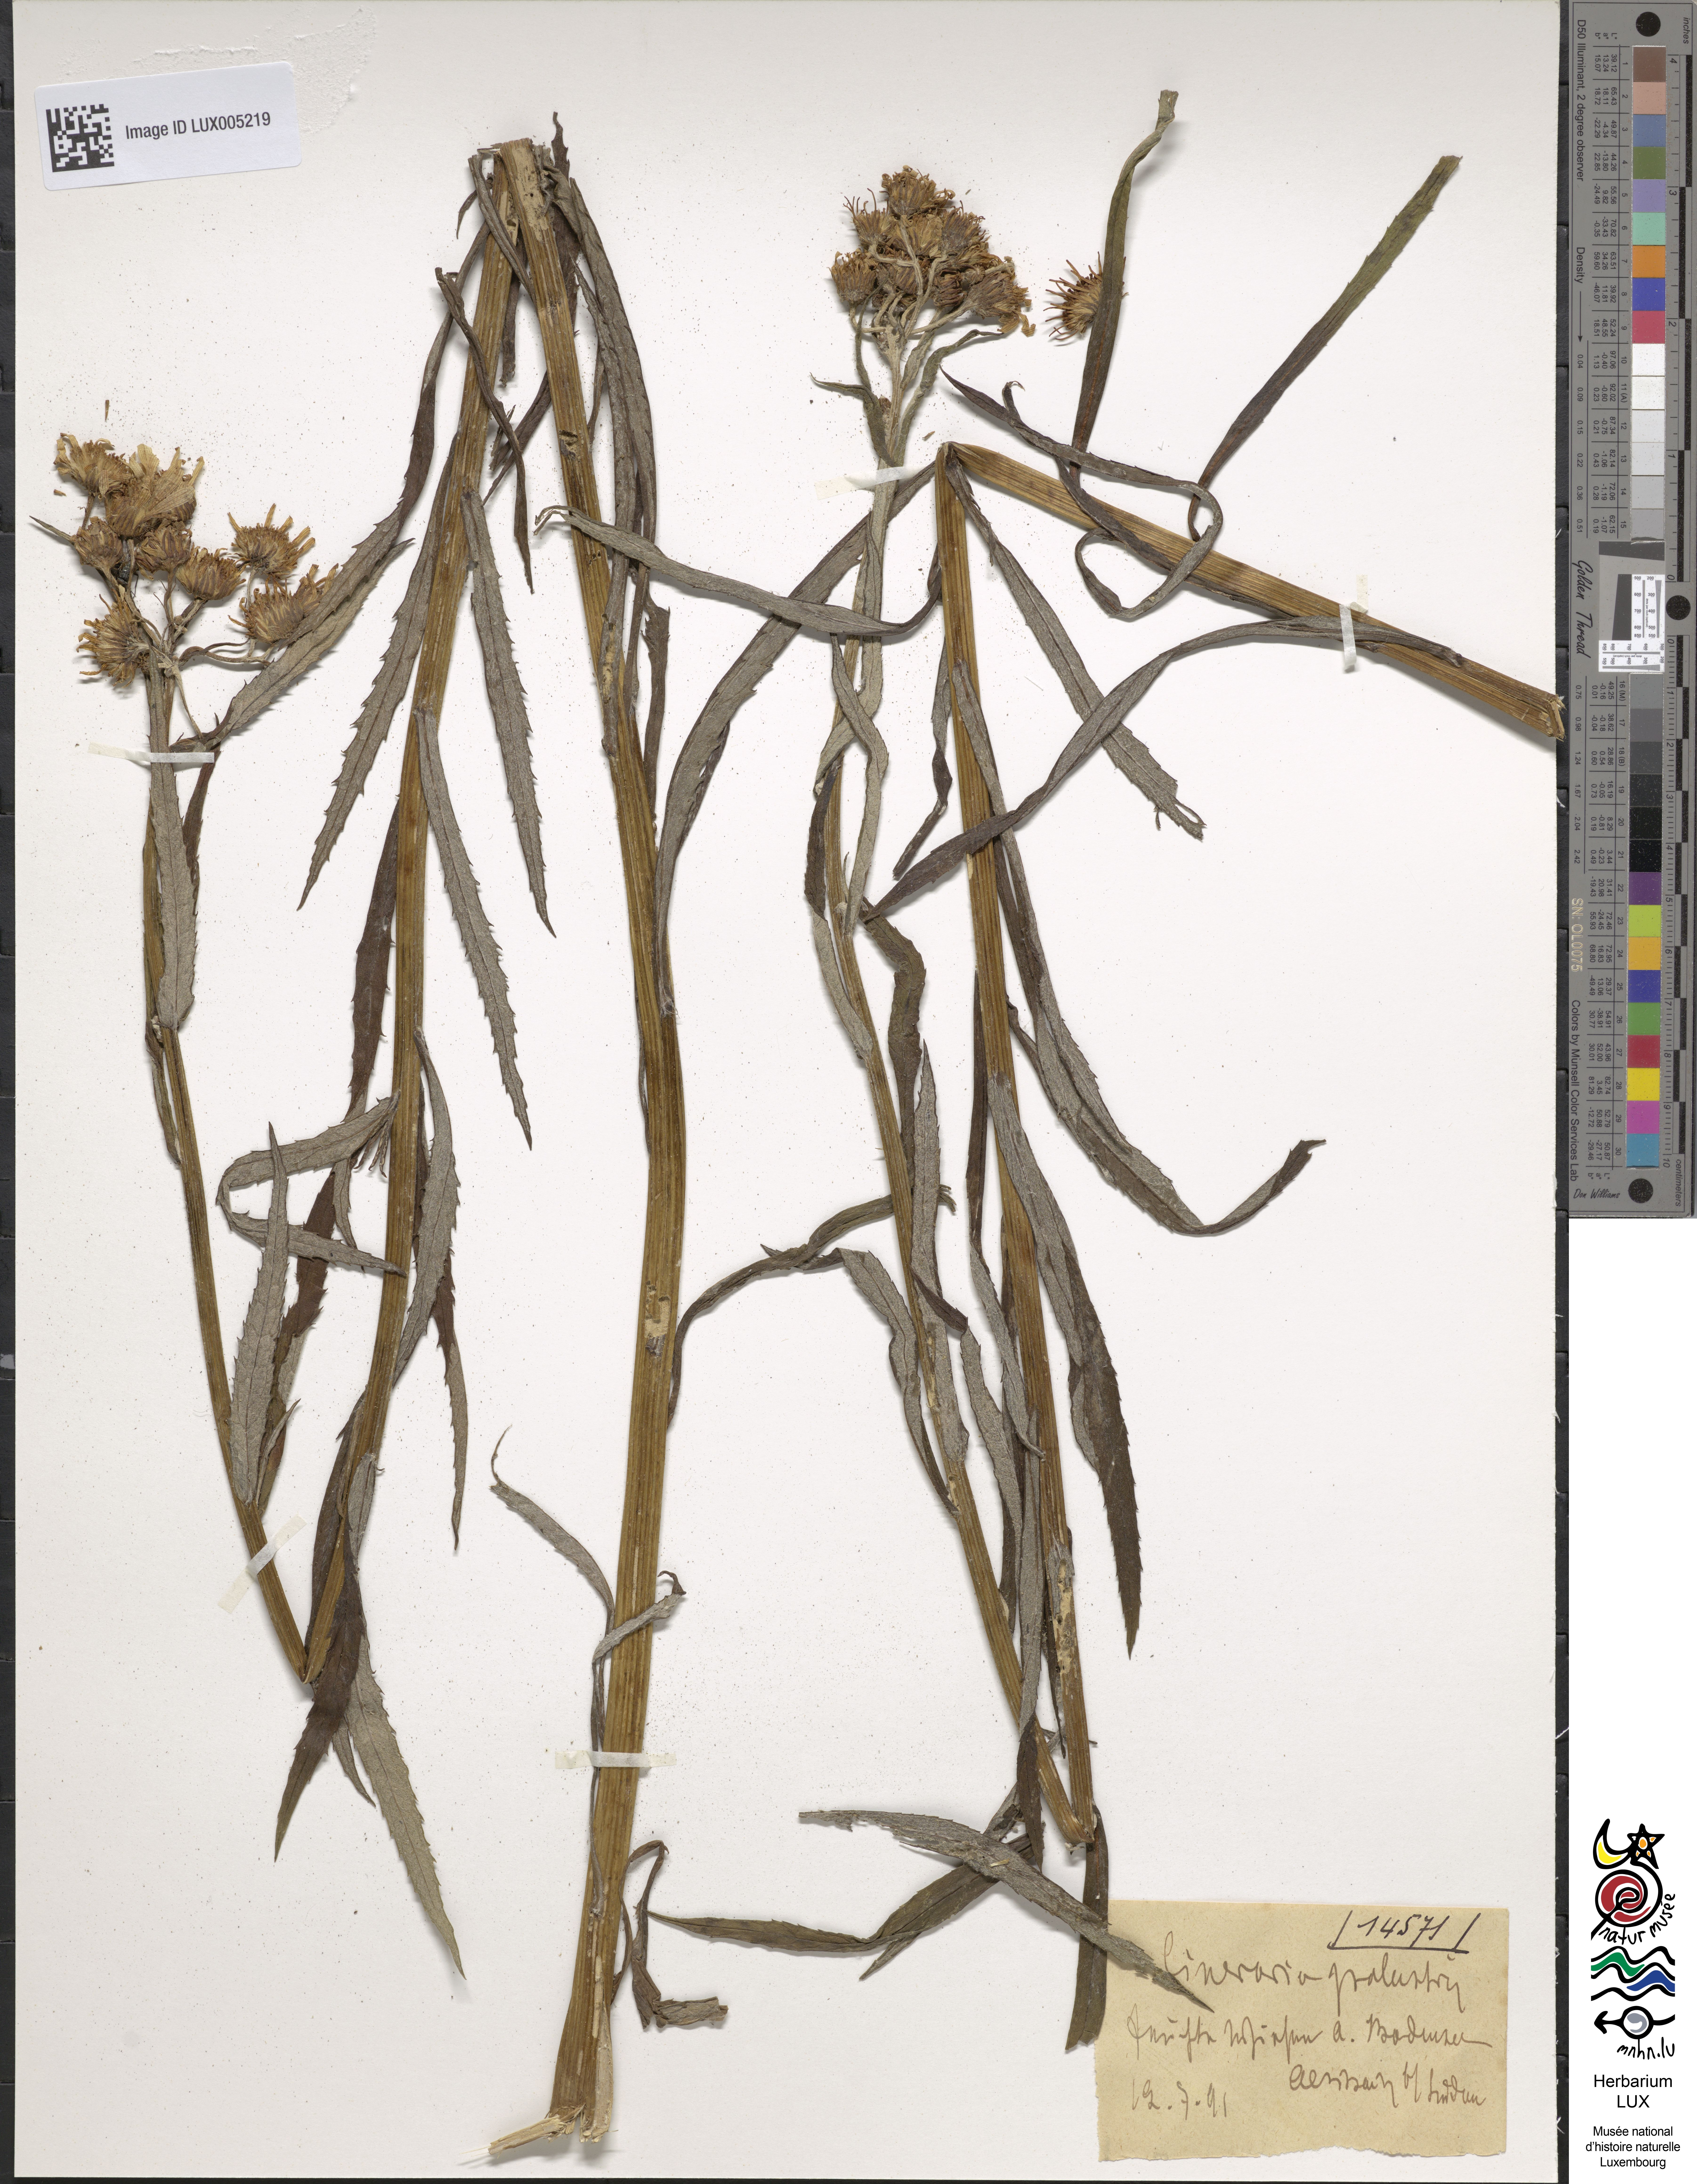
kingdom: Plantae
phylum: Tracheophyta
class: Magnoliopsida
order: Asterales
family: Asteraceae
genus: Senecio
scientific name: Senecio
